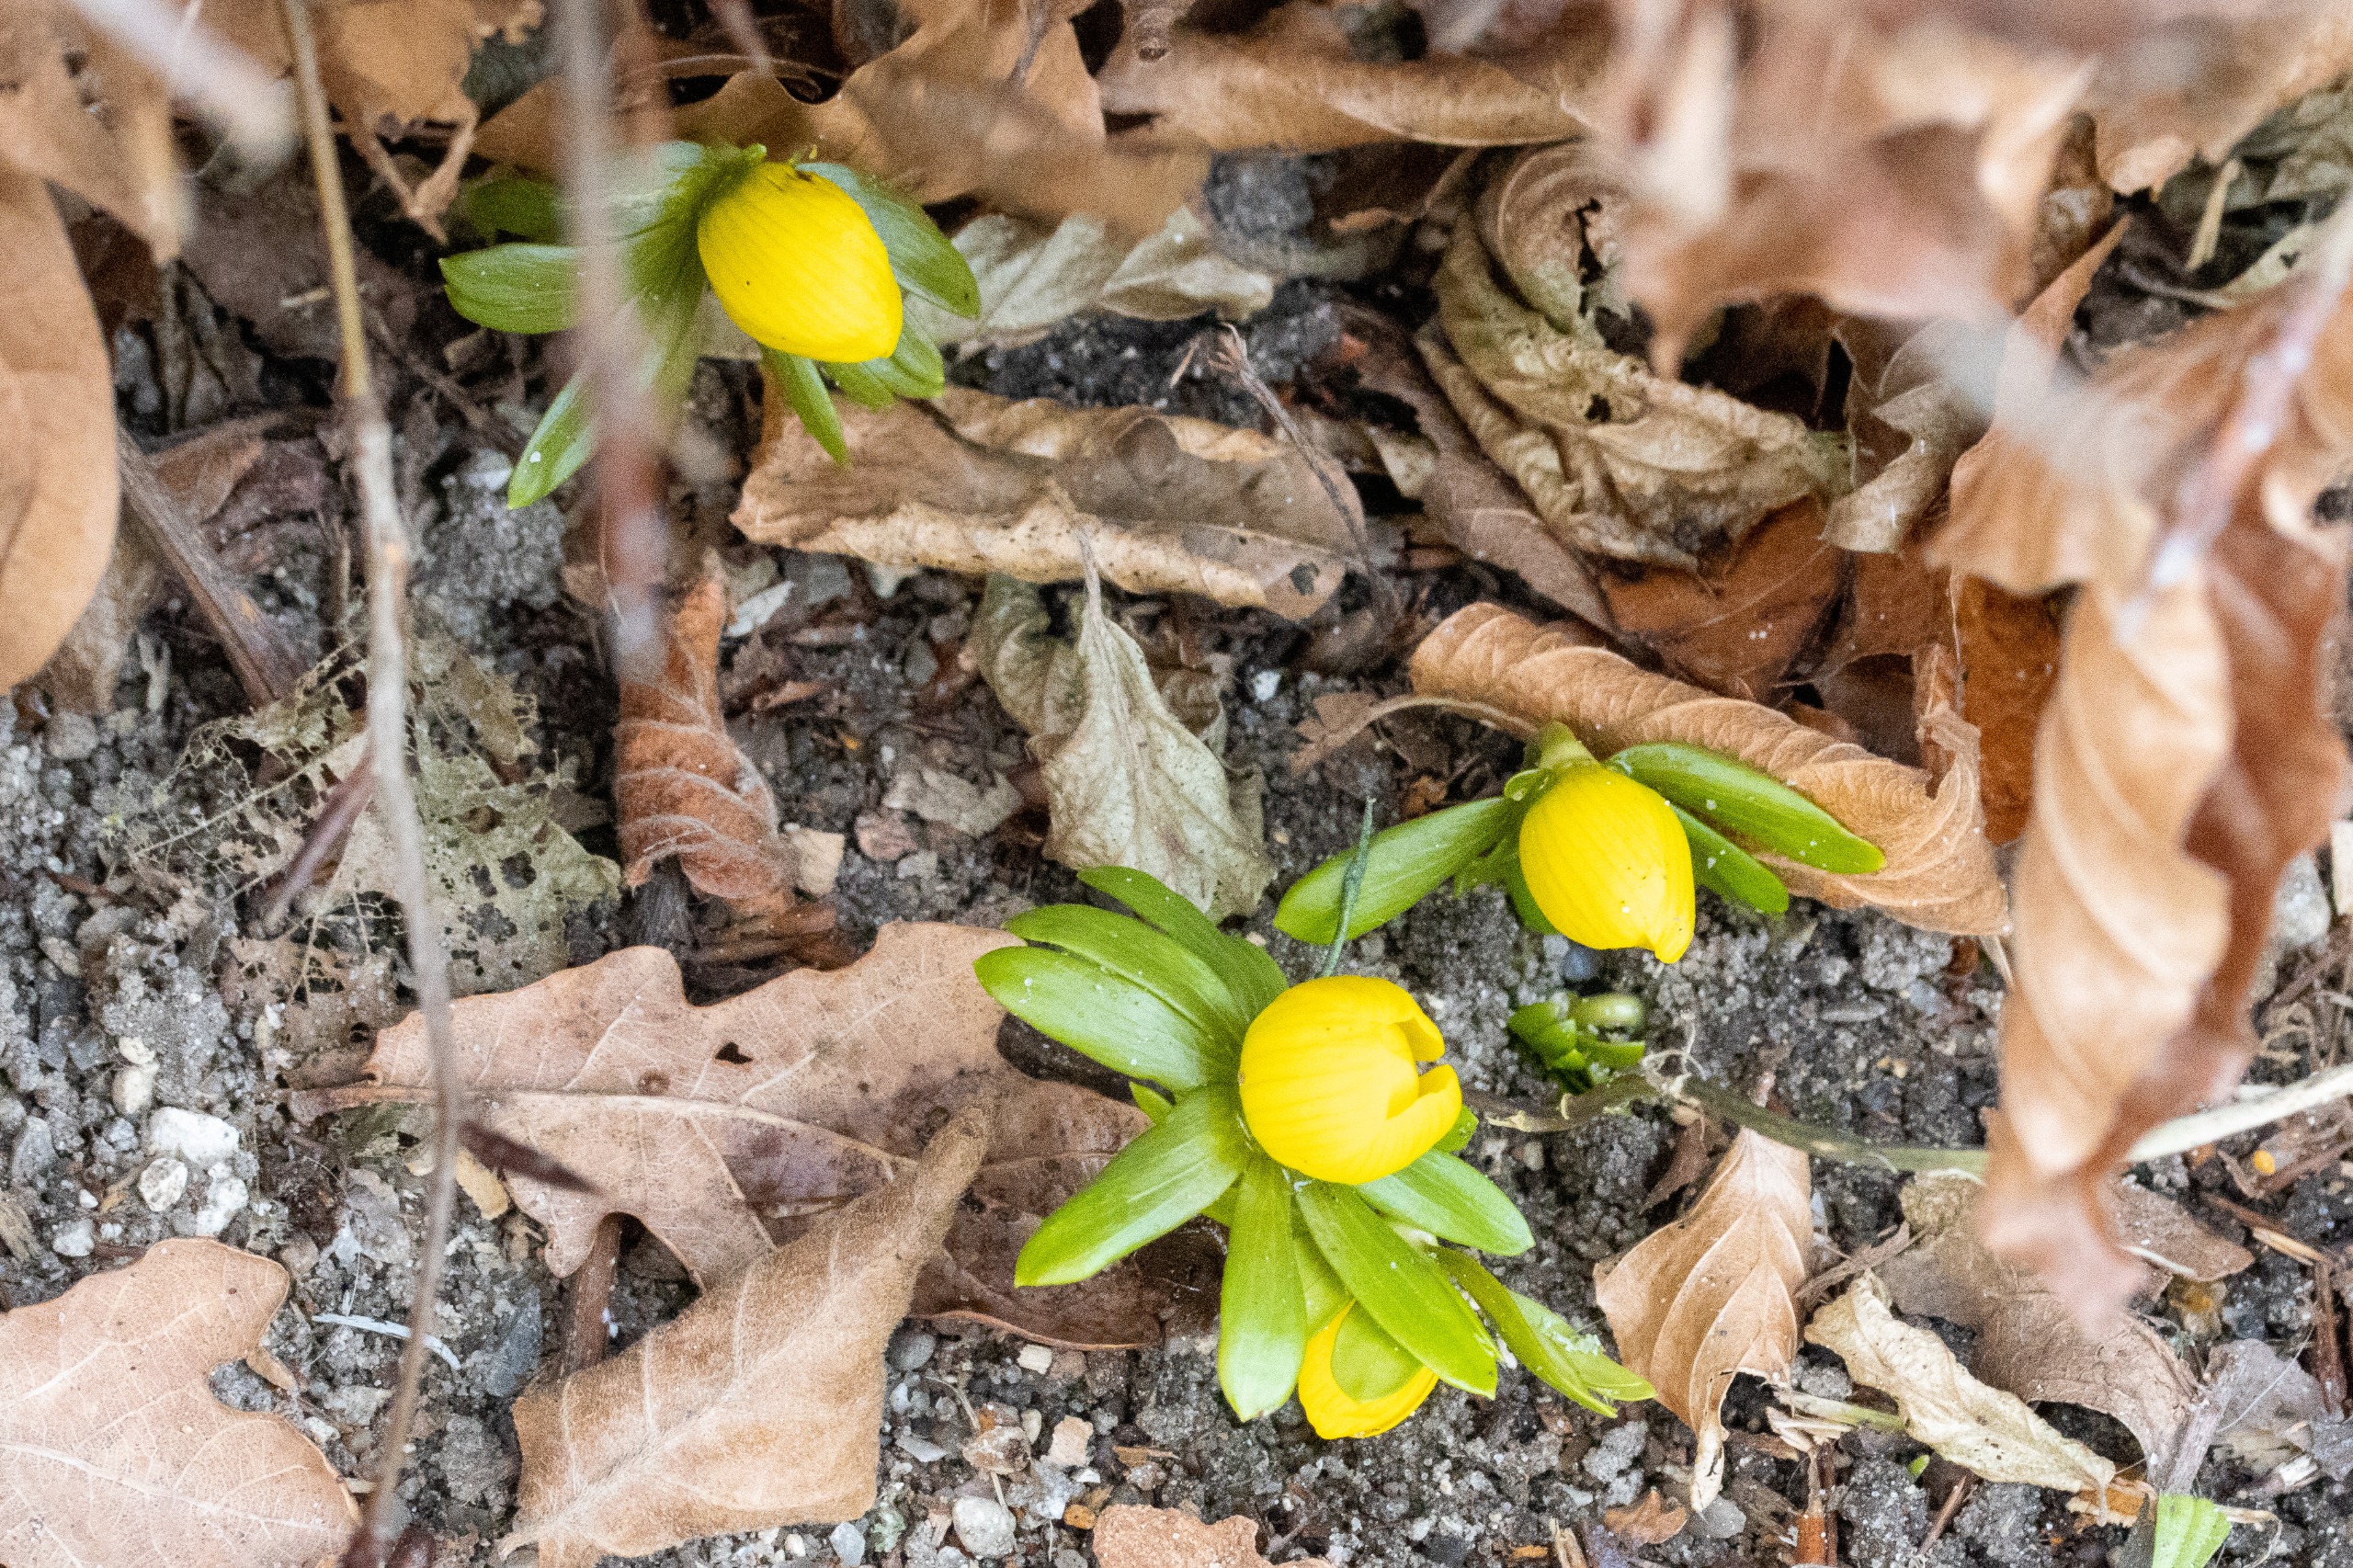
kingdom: Plantae
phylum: Tracheophyta
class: Magnoliopsida
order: Ranunculales
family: Ranunculaceae
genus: Eranthis
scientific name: Eranthis hyemalis
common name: Erantis
